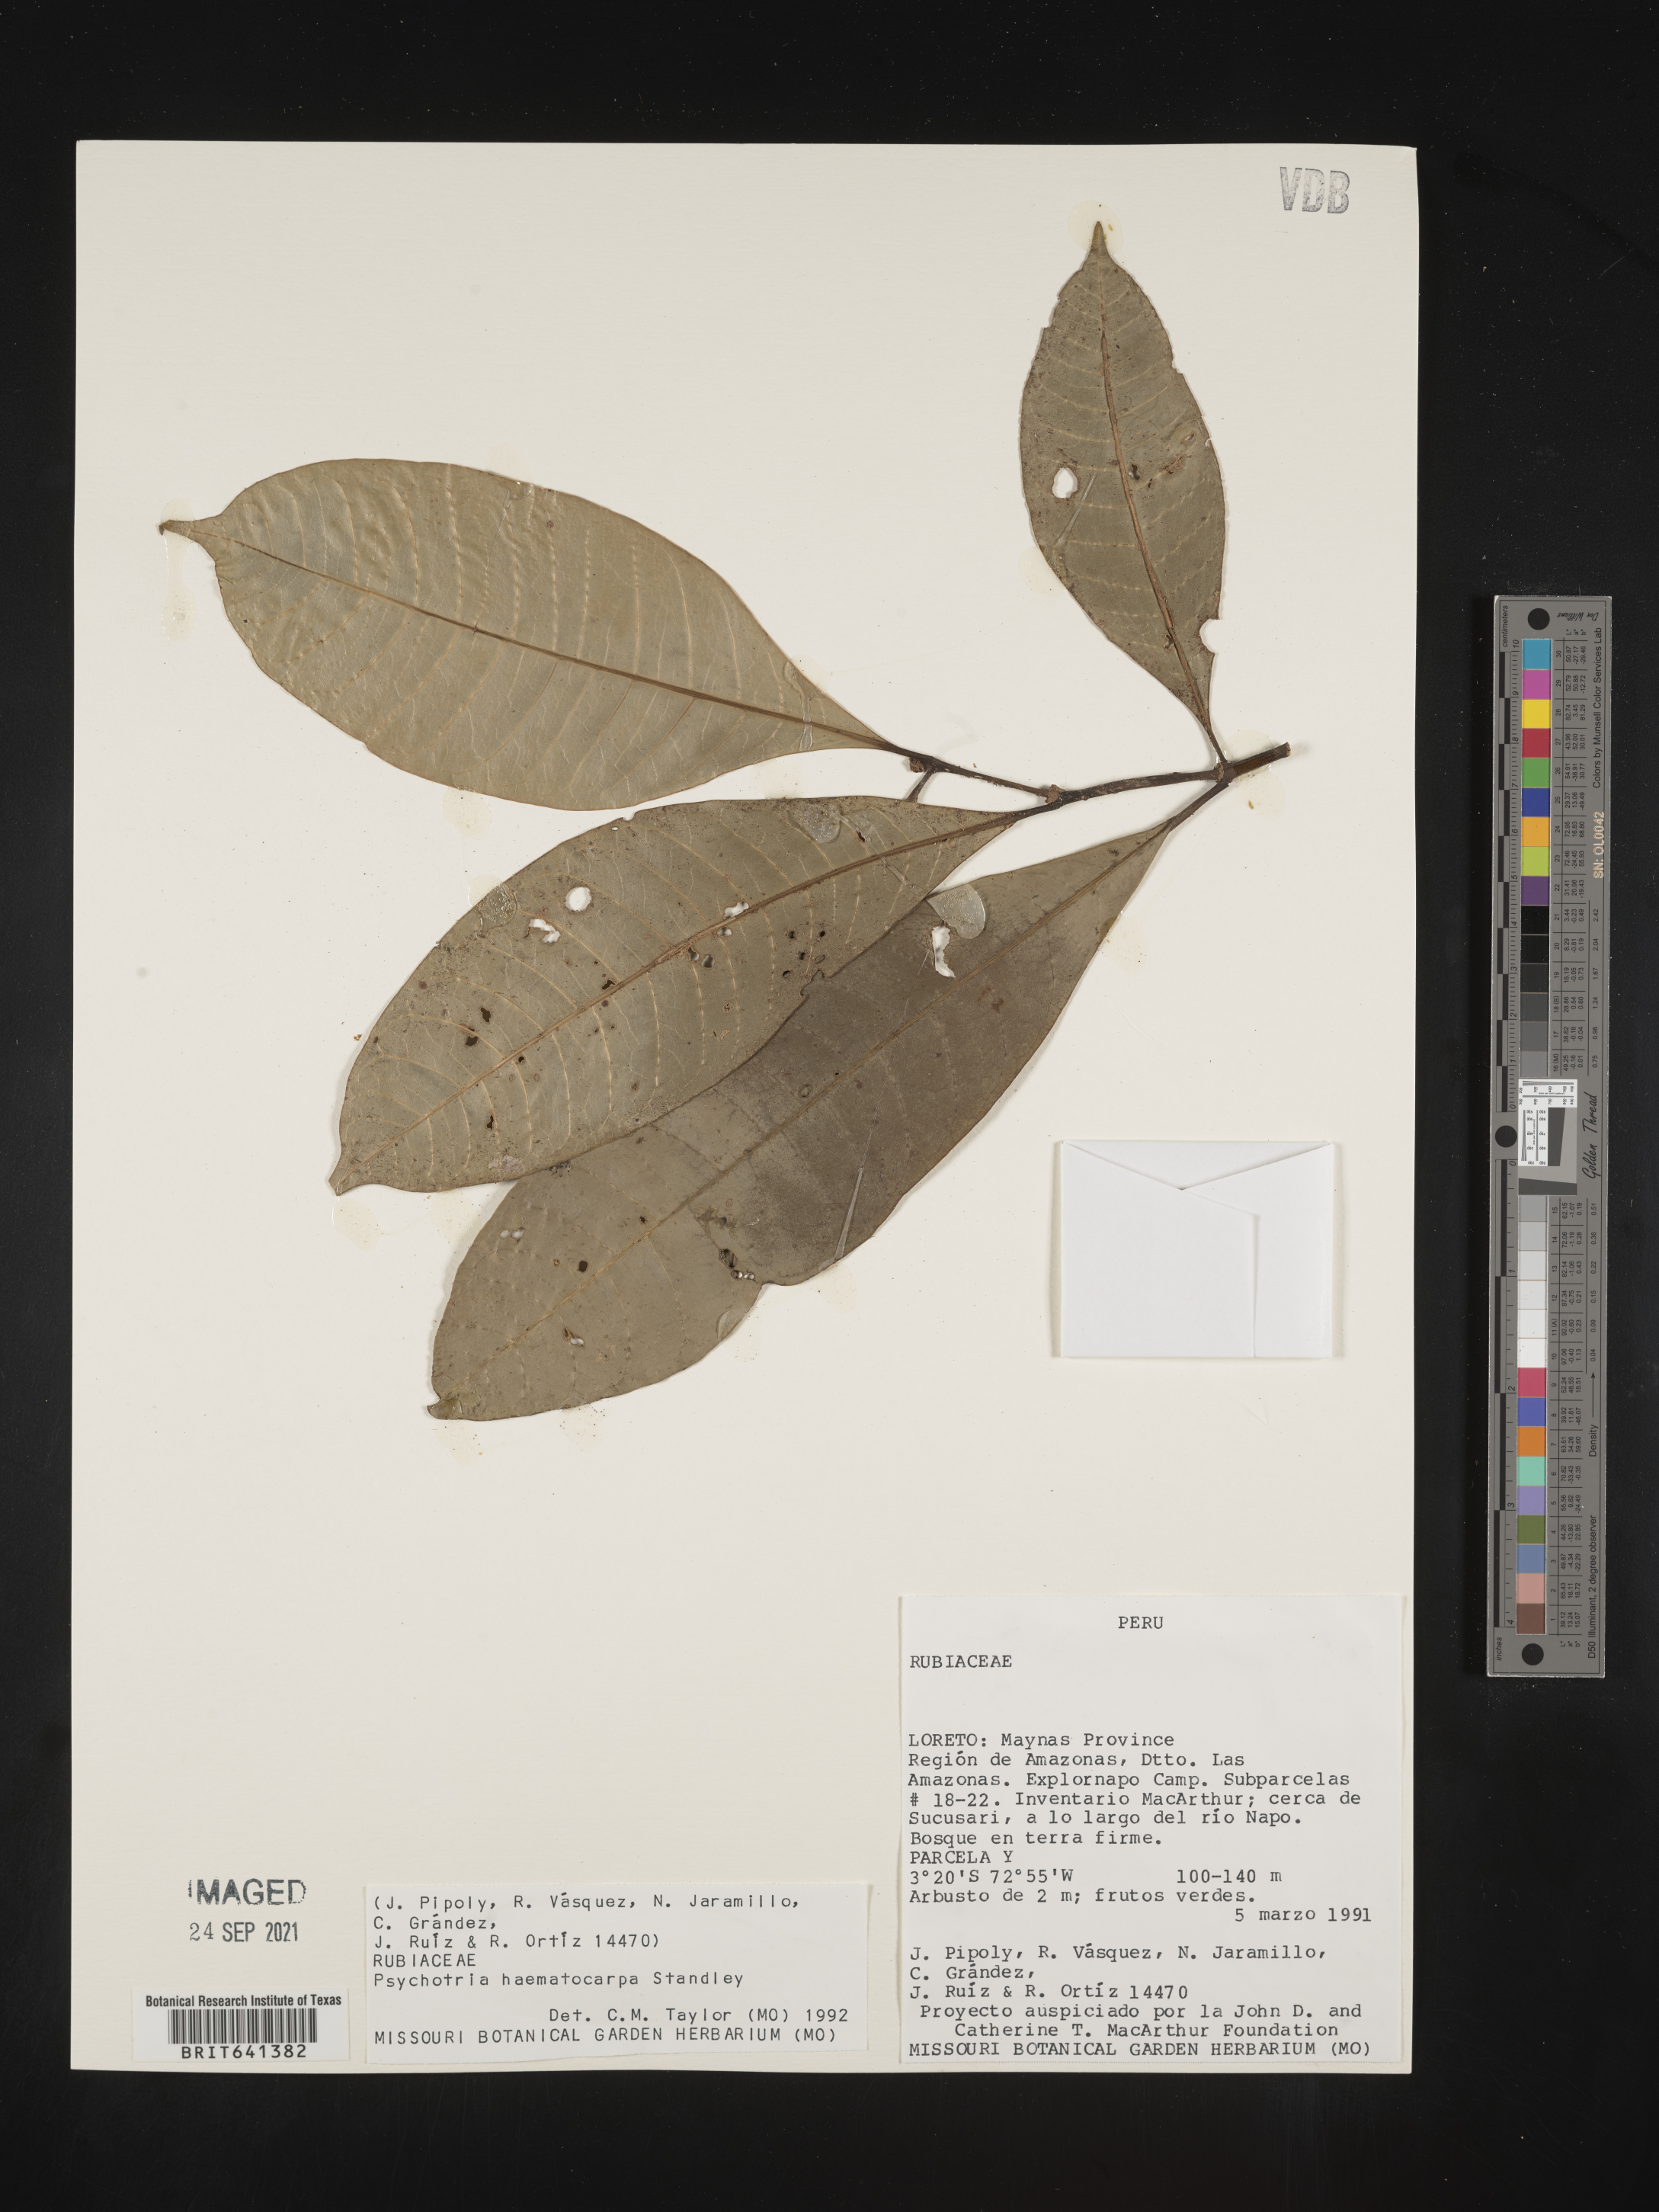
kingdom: Plantae
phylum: Tracheophyta
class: Magnoliopsida
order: Gentianales
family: Rubiaceae
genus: Psychotria
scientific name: Psychotria
